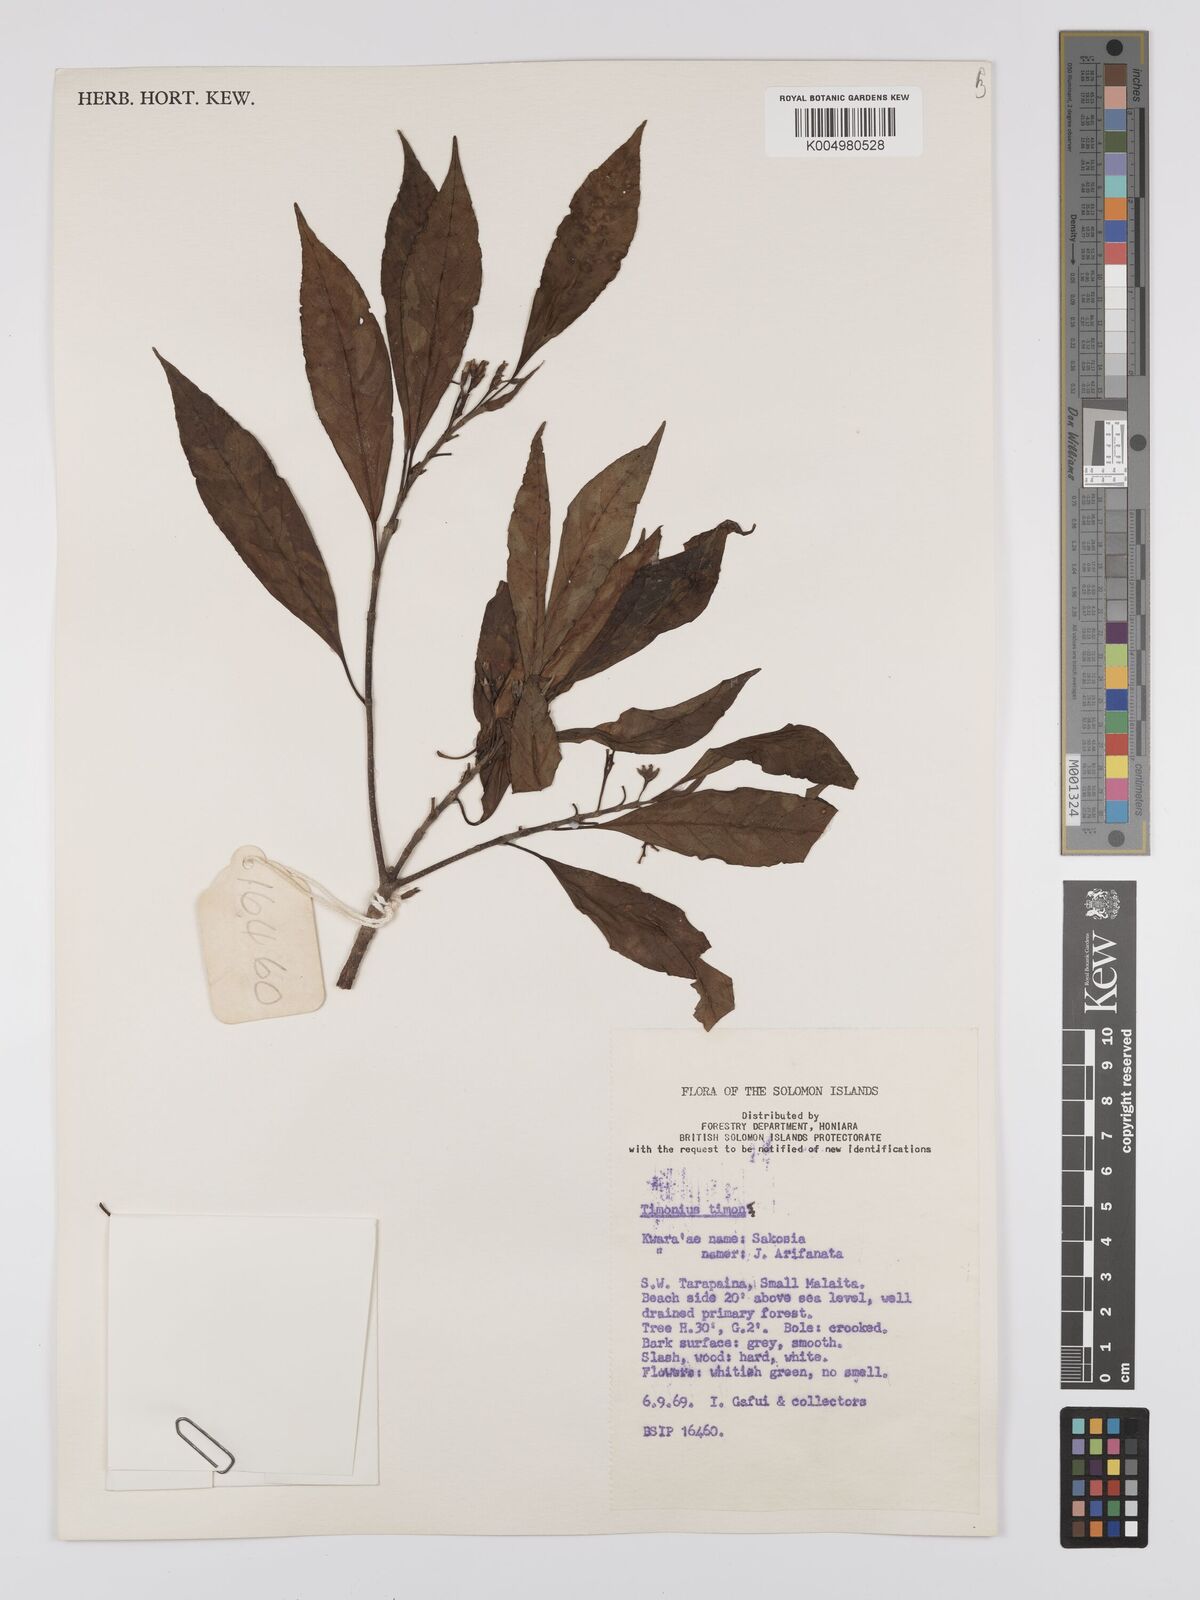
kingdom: Plantae
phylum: Tracheophyta
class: Magnoliopsida
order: Gentianales
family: Rubiaceae
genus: Timonius
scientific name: Timonius timon
